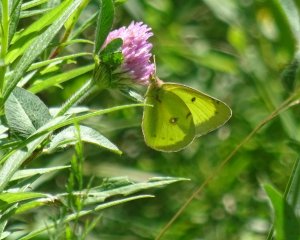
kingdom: Animalia
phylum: Arthropoda
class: Insecta
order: Lepidoptera
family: Pieridae
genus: Colias
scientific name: Colias philodice
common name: Clouded Sulphur
